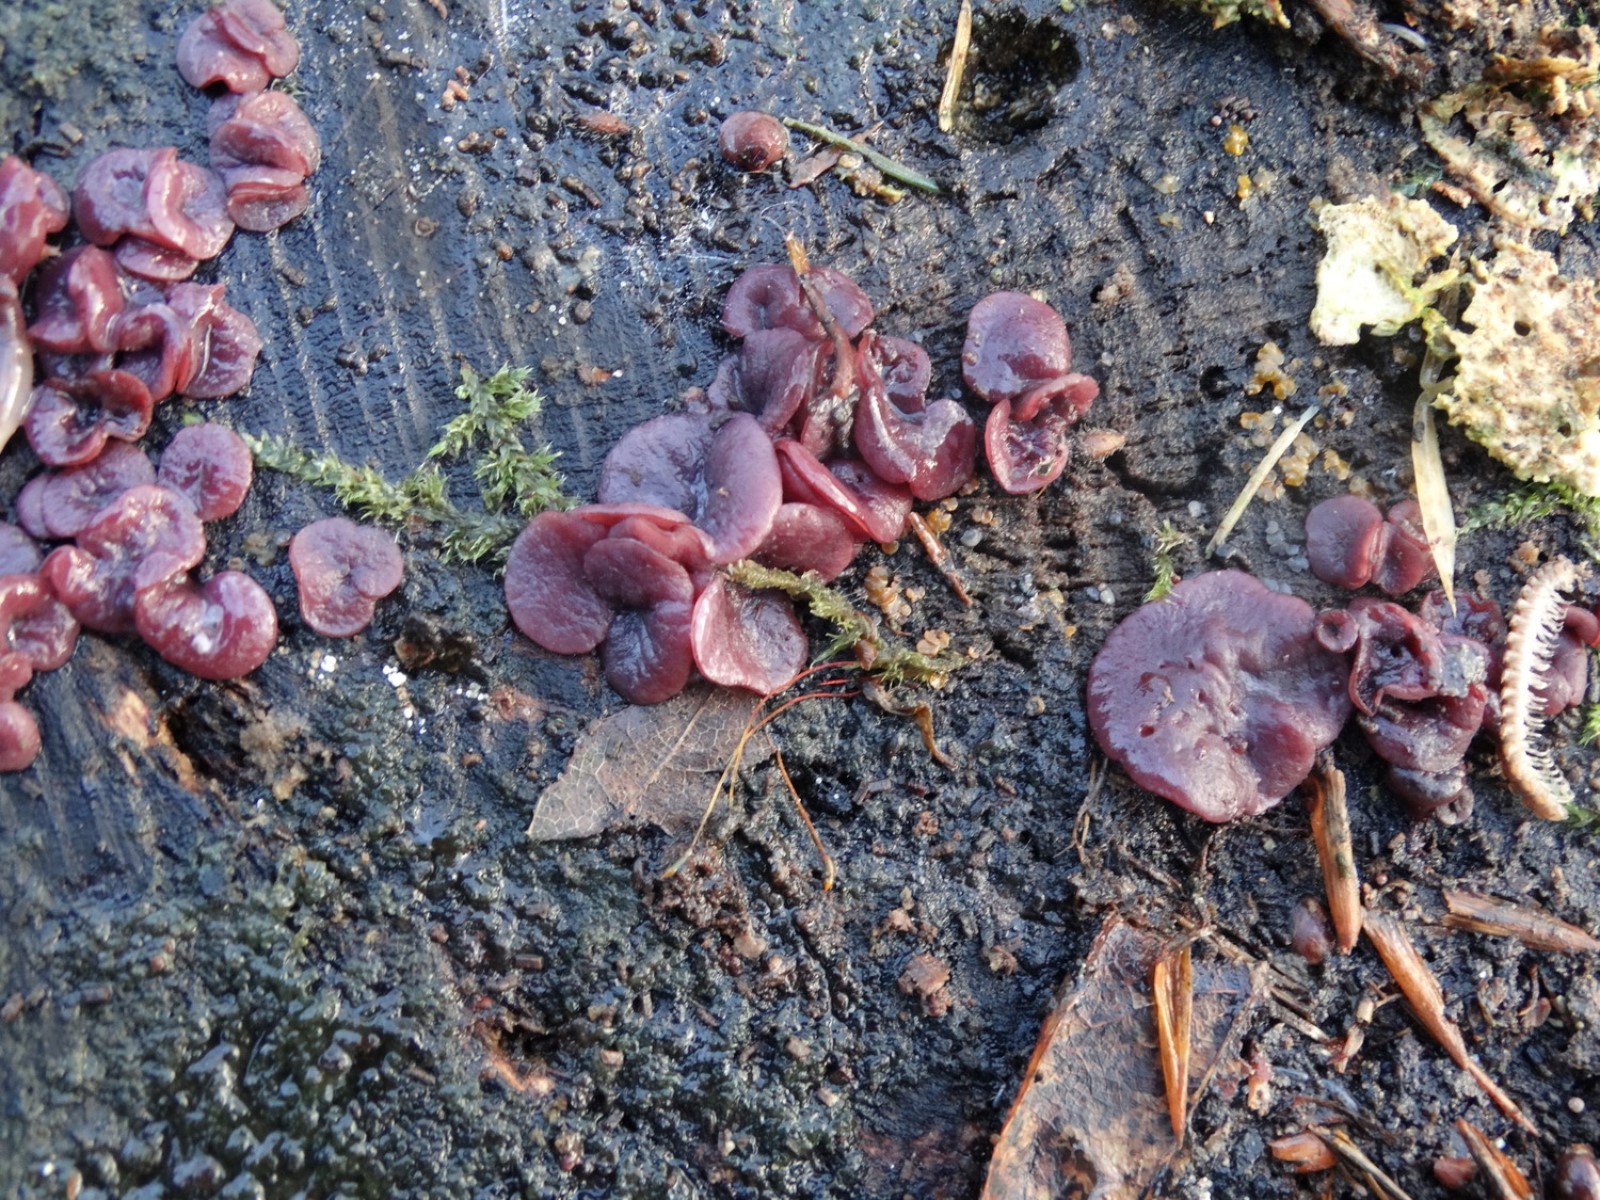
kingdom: Fungi
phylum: Ascomycota
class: Leotiomycetes
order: Helotiales
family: Gelatinodiscaceae
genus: Ascocoryne
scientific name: Ascocoryne cylichnium
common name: stor sejskive
